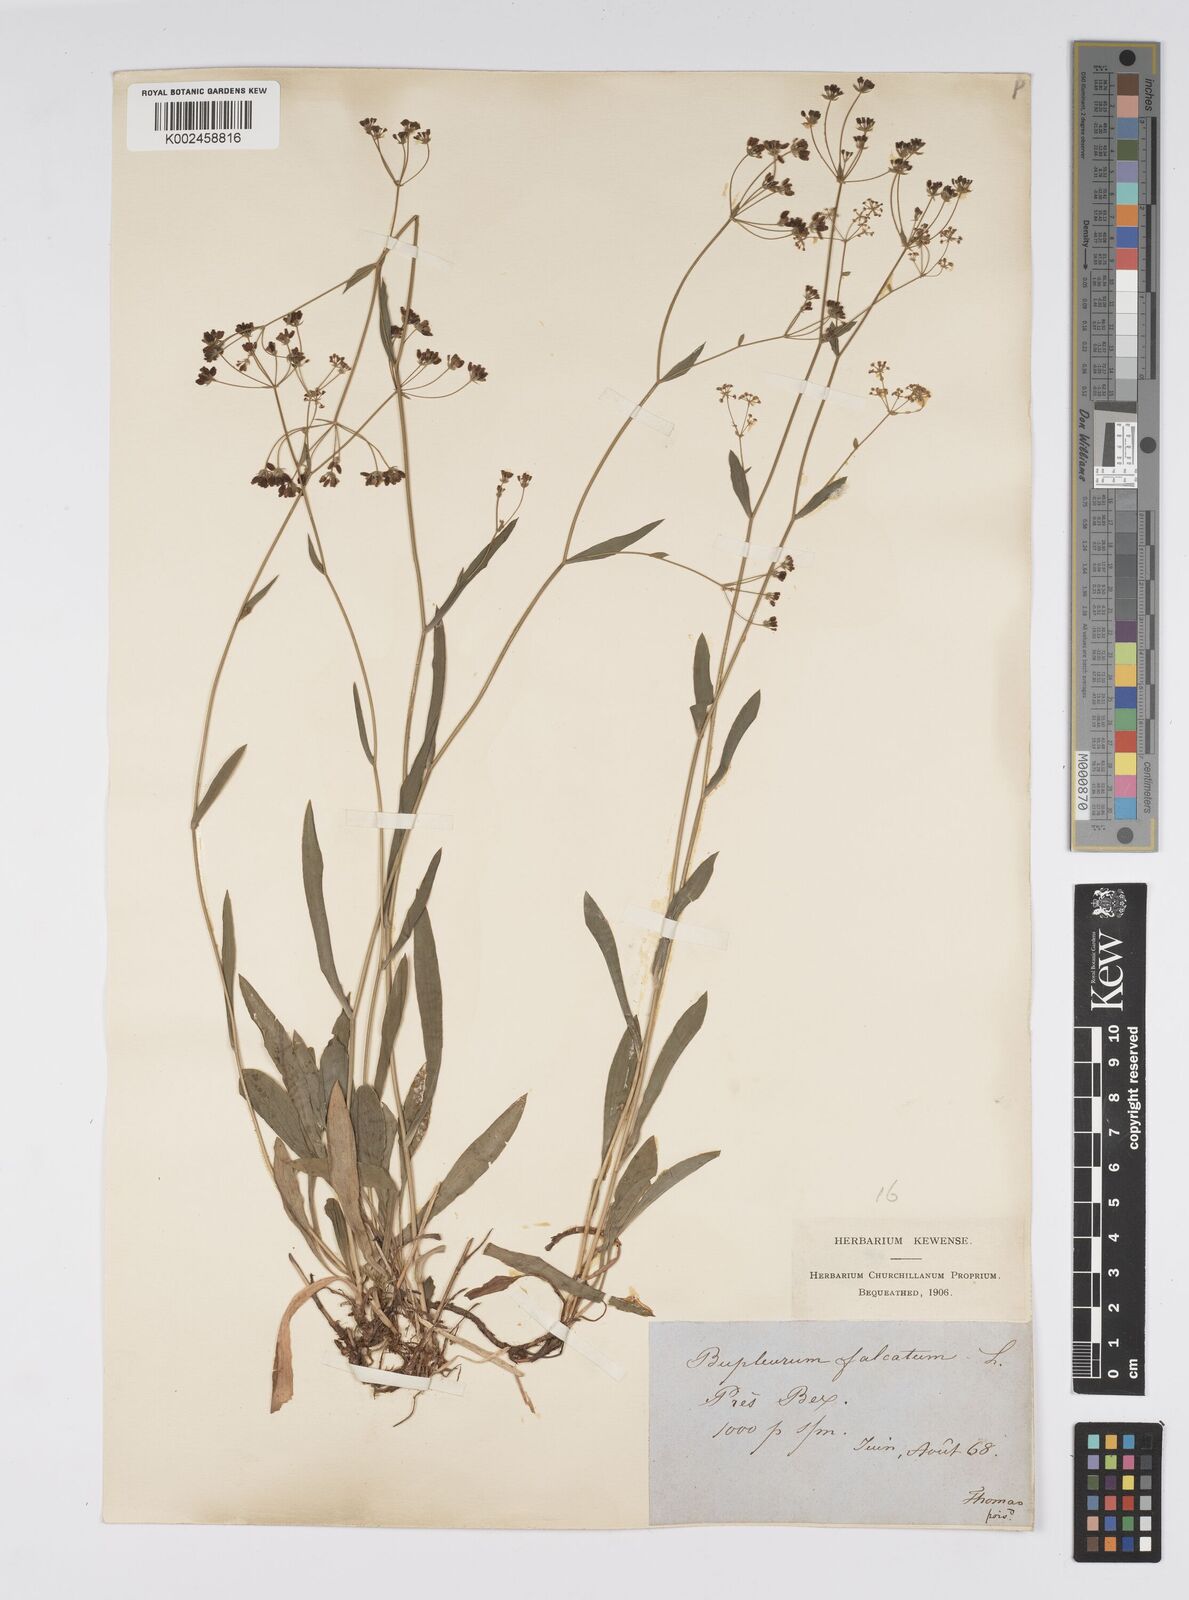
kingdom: Plantae
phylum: Tracheophyta
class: Magnoliopsida
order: Apiales
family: Apiaceae
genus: Bupleurum
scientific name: Bupleurum falcatum
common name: Sickle-leaved hare's-ear
